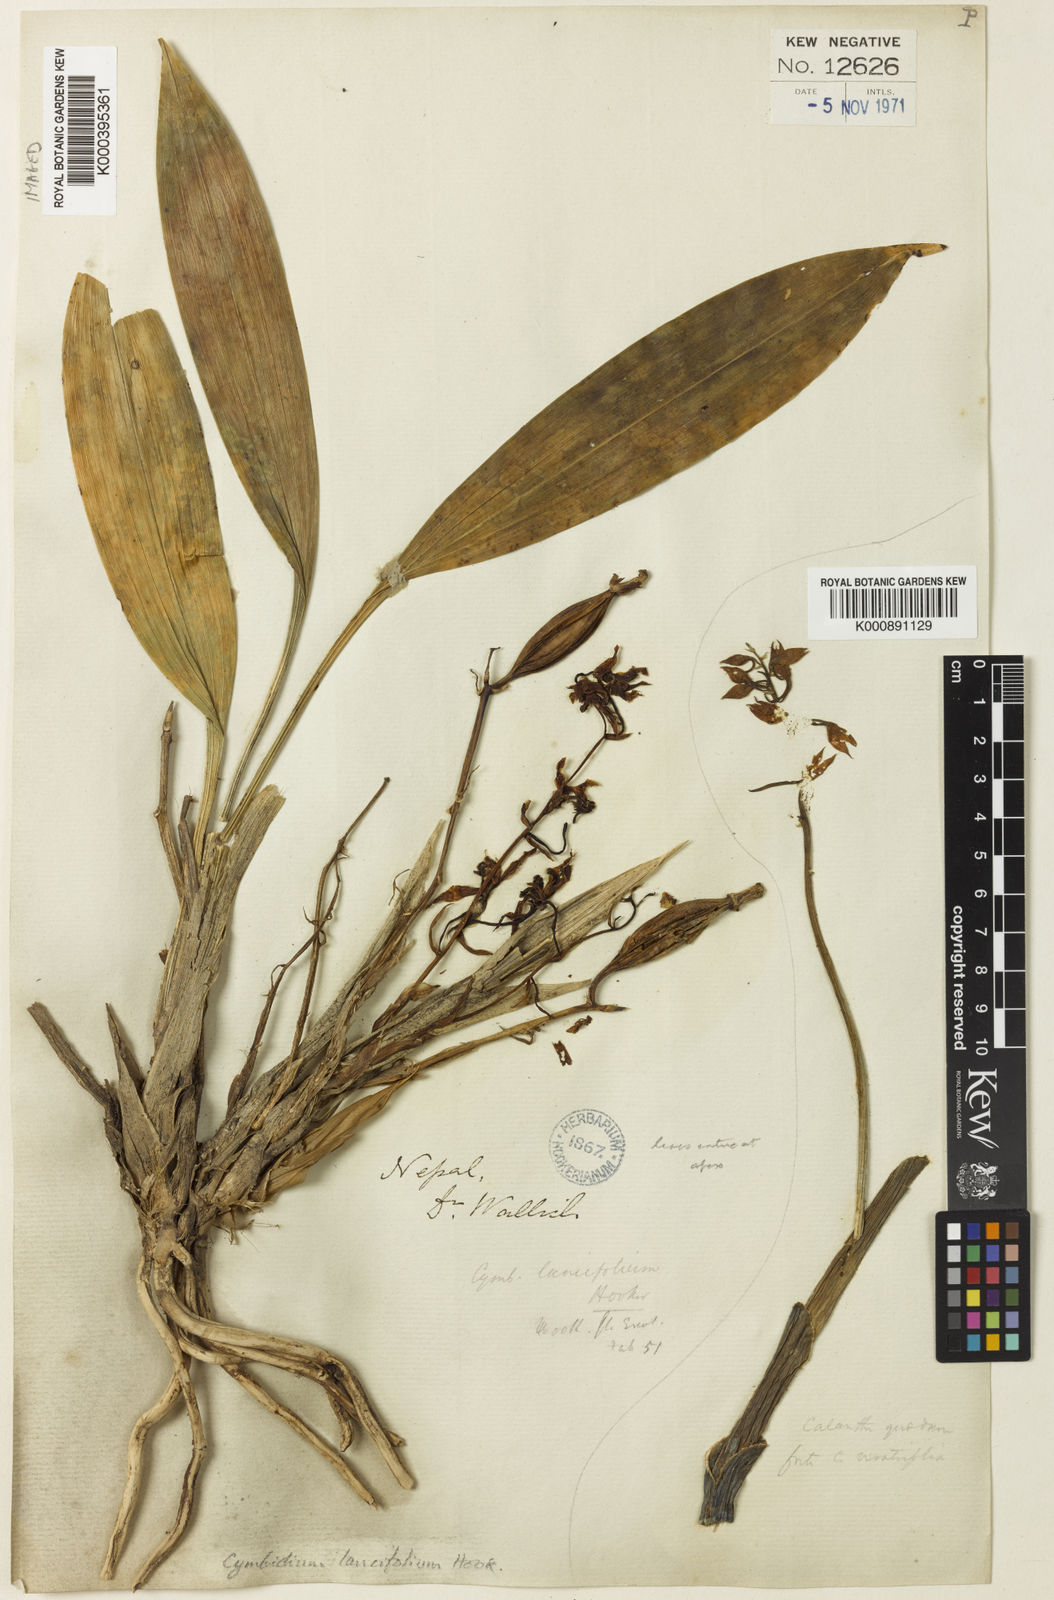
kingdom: Plantae
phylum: Tracheophyta
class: Liliopsida
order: Asparagales
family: Orchidaceae
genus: Cymbidium
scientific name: Cymbidium lancifolium
